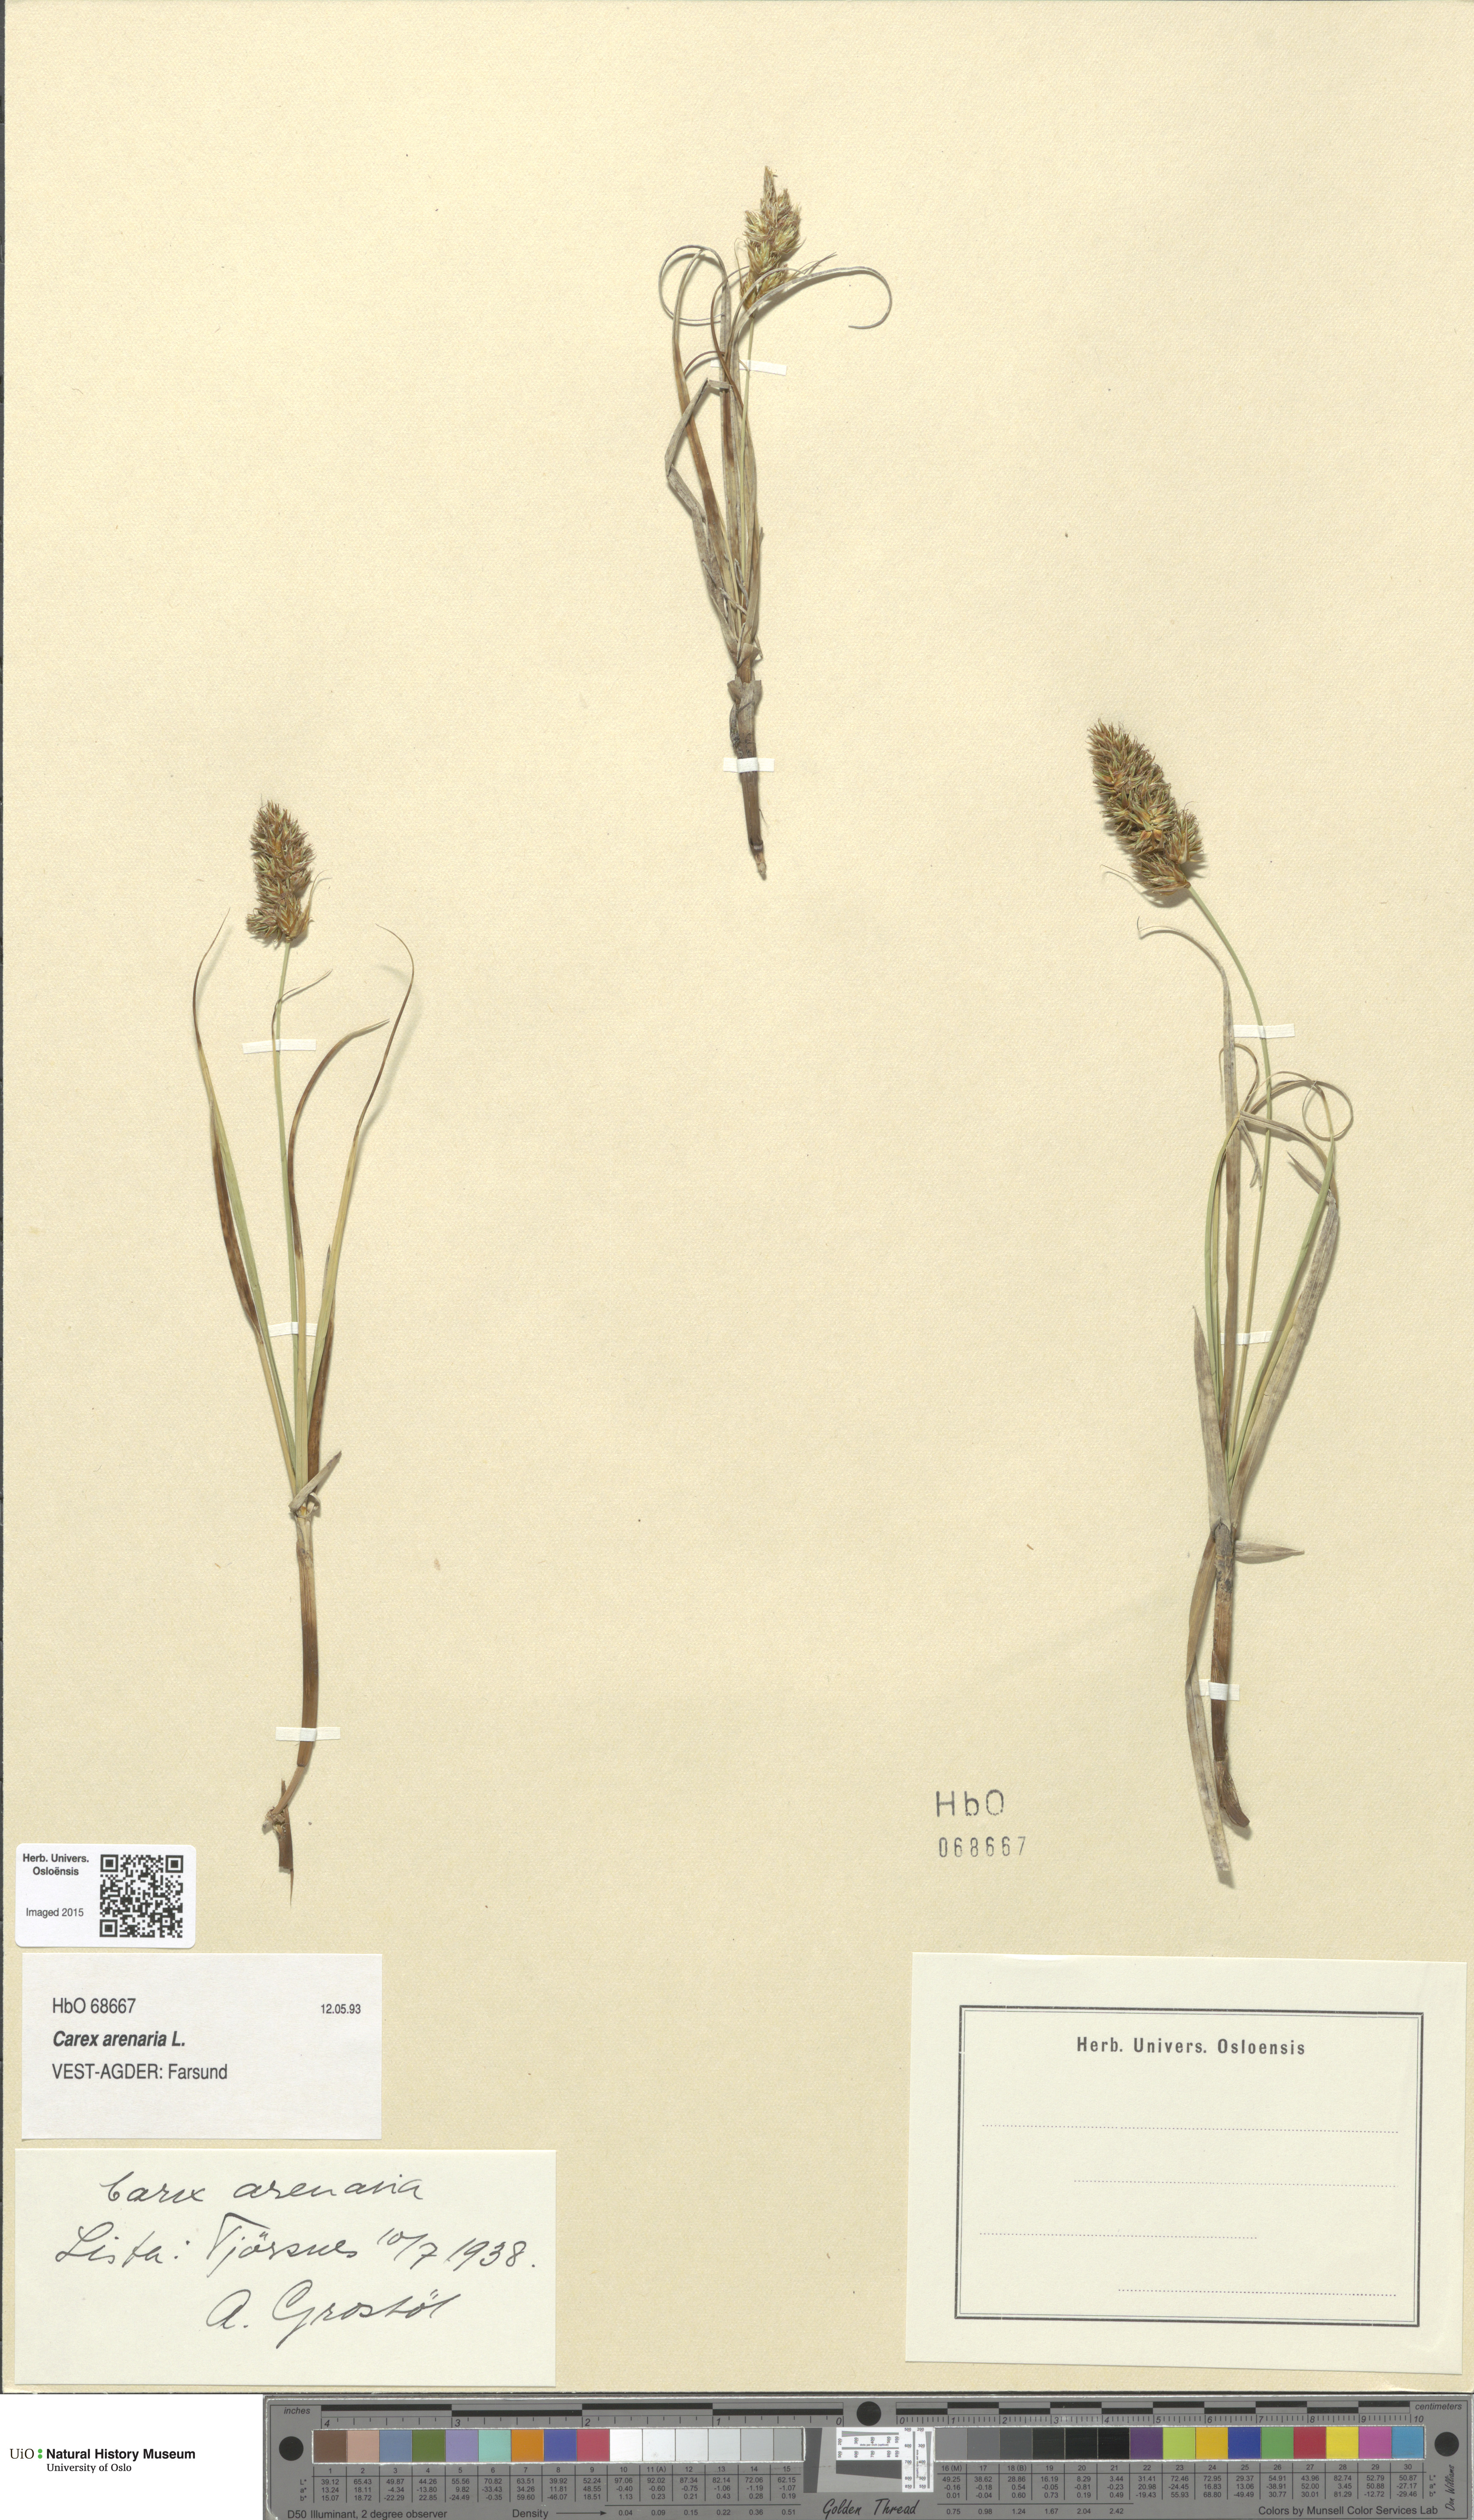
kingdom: Plantae
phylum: Tracheophyta
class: Liliopsida
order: Poales
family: Cyperaceae
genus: Carex
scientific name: Carex arenaria
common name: Sand sedge
